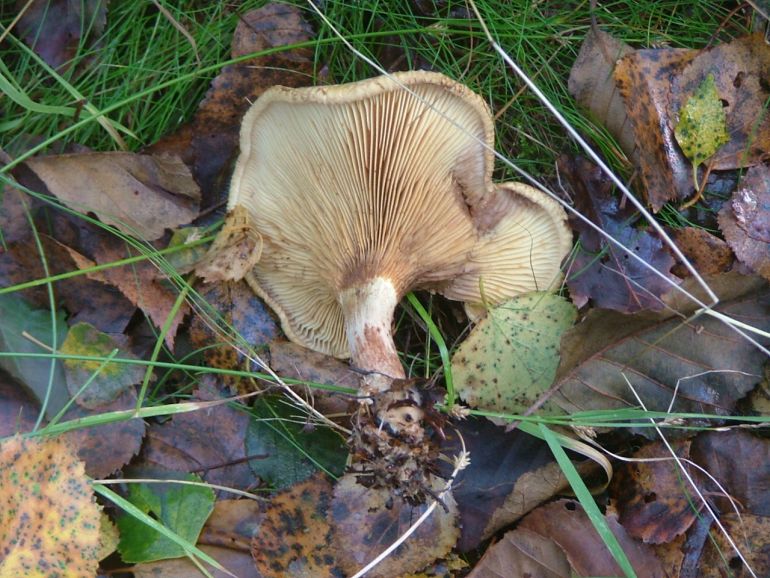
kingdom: Fungi
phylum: Basidiomycota
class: Agaricomycetes
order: Boletales
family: Paxillaceae
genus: Paxillus
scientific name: Paxillus involutus
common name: almindelig netbladhat
